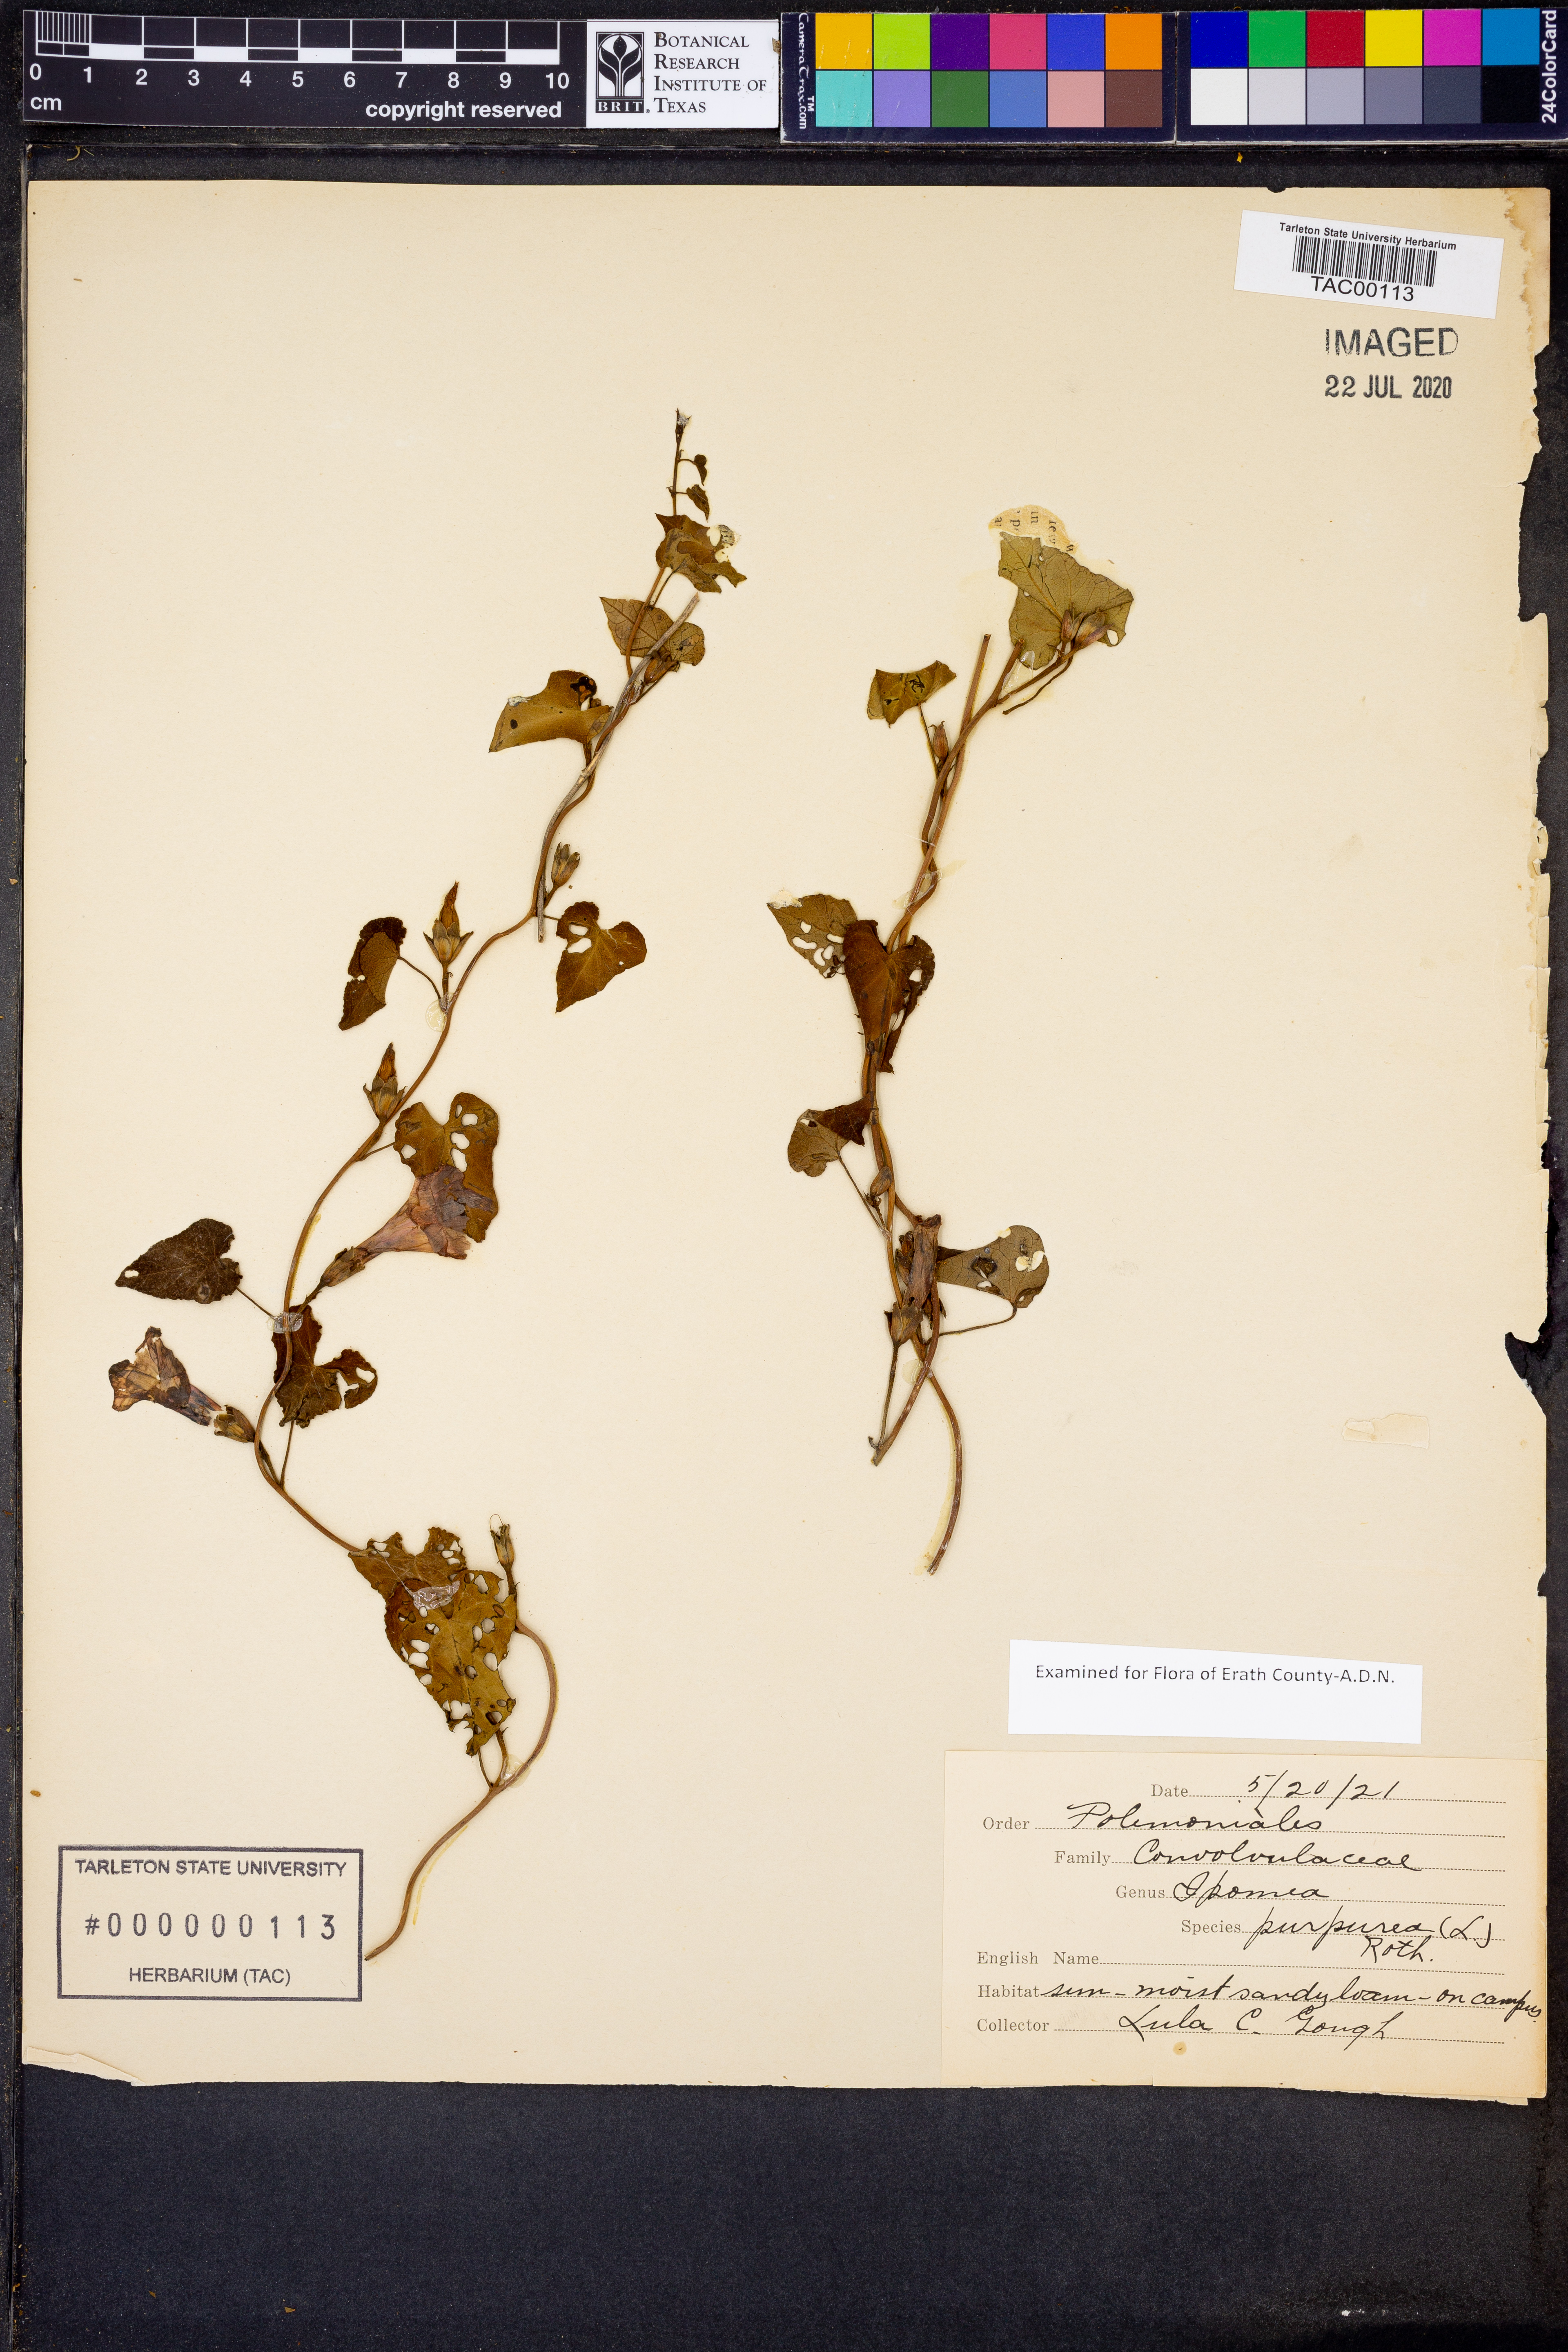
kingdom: Plantae
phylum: Tracheophyta
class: Magnoliopsida
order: Solanales
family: Convolvulaceae
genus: Ipomoea
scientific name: Ipomoea purpurea
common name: Common morning-glory
